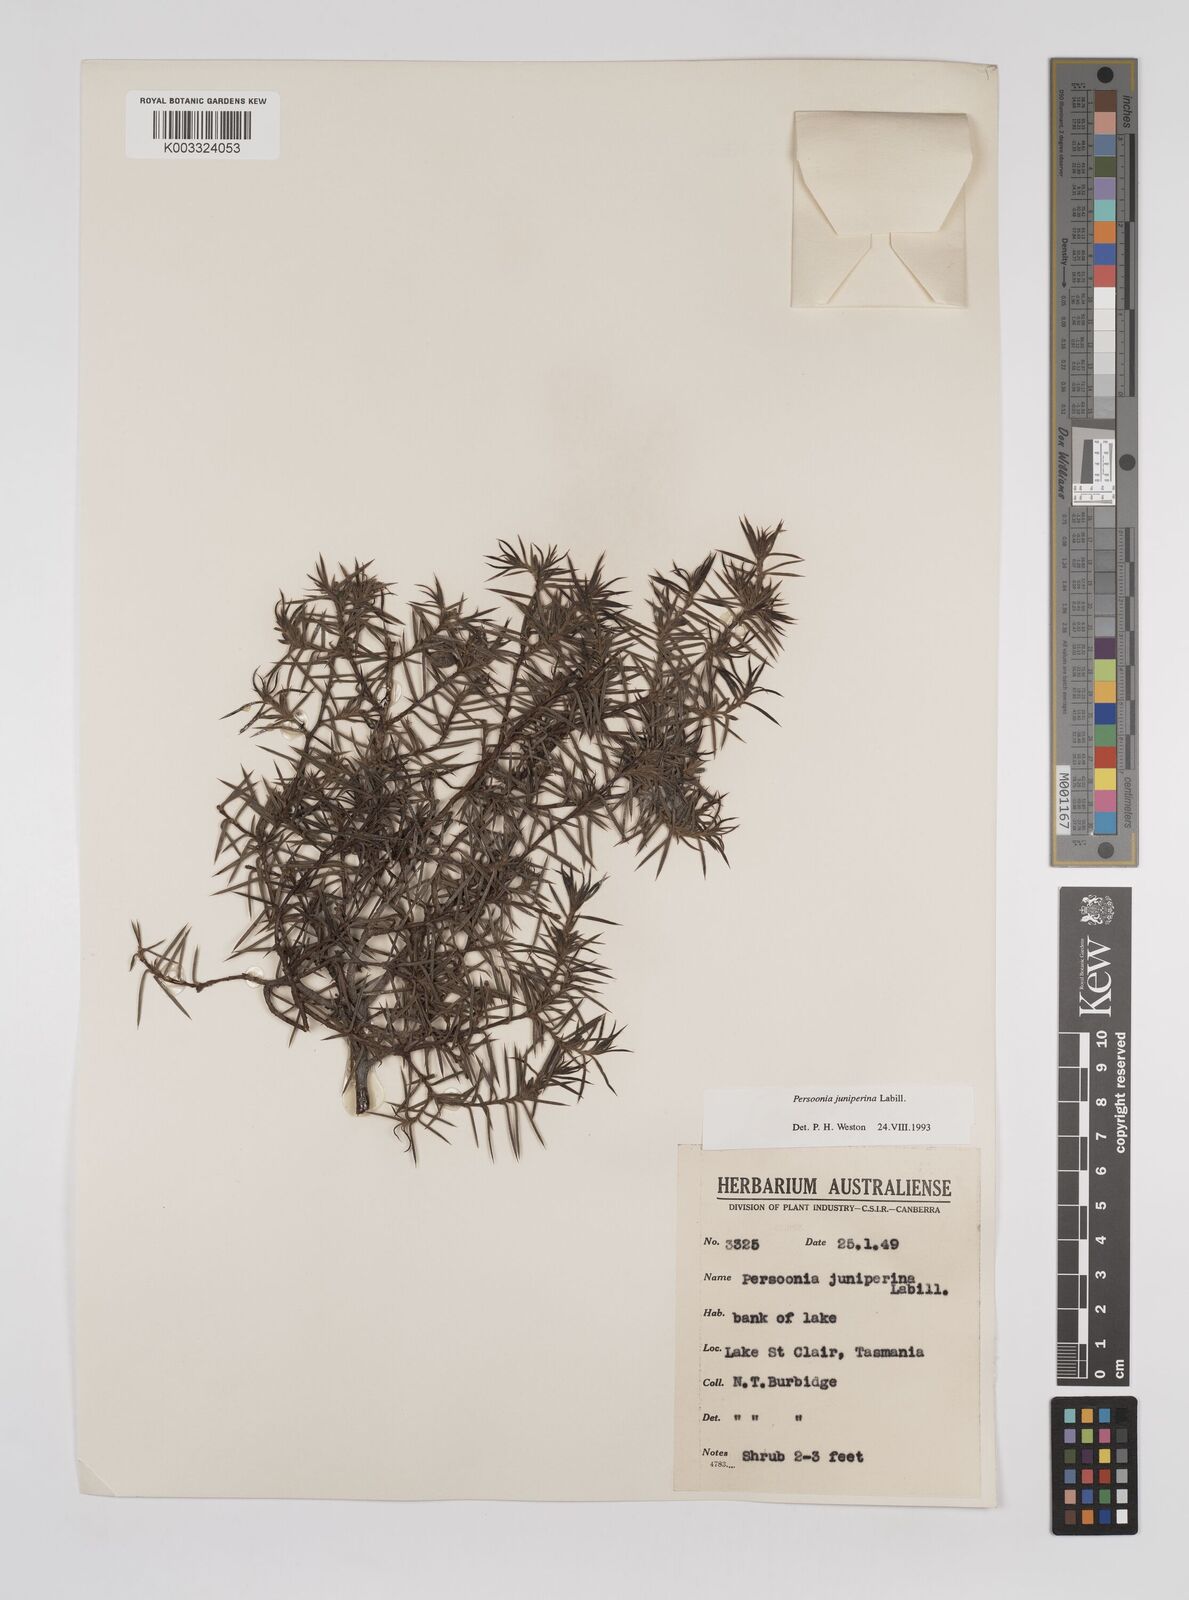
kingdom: Plantae
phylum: Tracheophyta
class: Magnoliopsida
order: Proteales
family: Proteaceae
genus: Persoonia
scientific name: Persoonia juniperina
